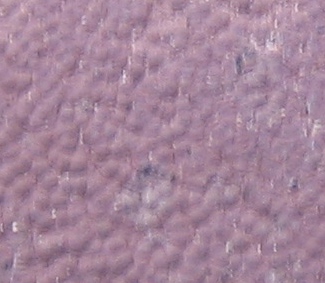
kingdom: Fungi
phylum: Ascomycota
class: Sordariomycetes
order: Xylariales
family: Hypoxylaceae
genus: Hypoxylon
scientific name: Hypoxylon petriniae
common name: nedsænket kulbær
